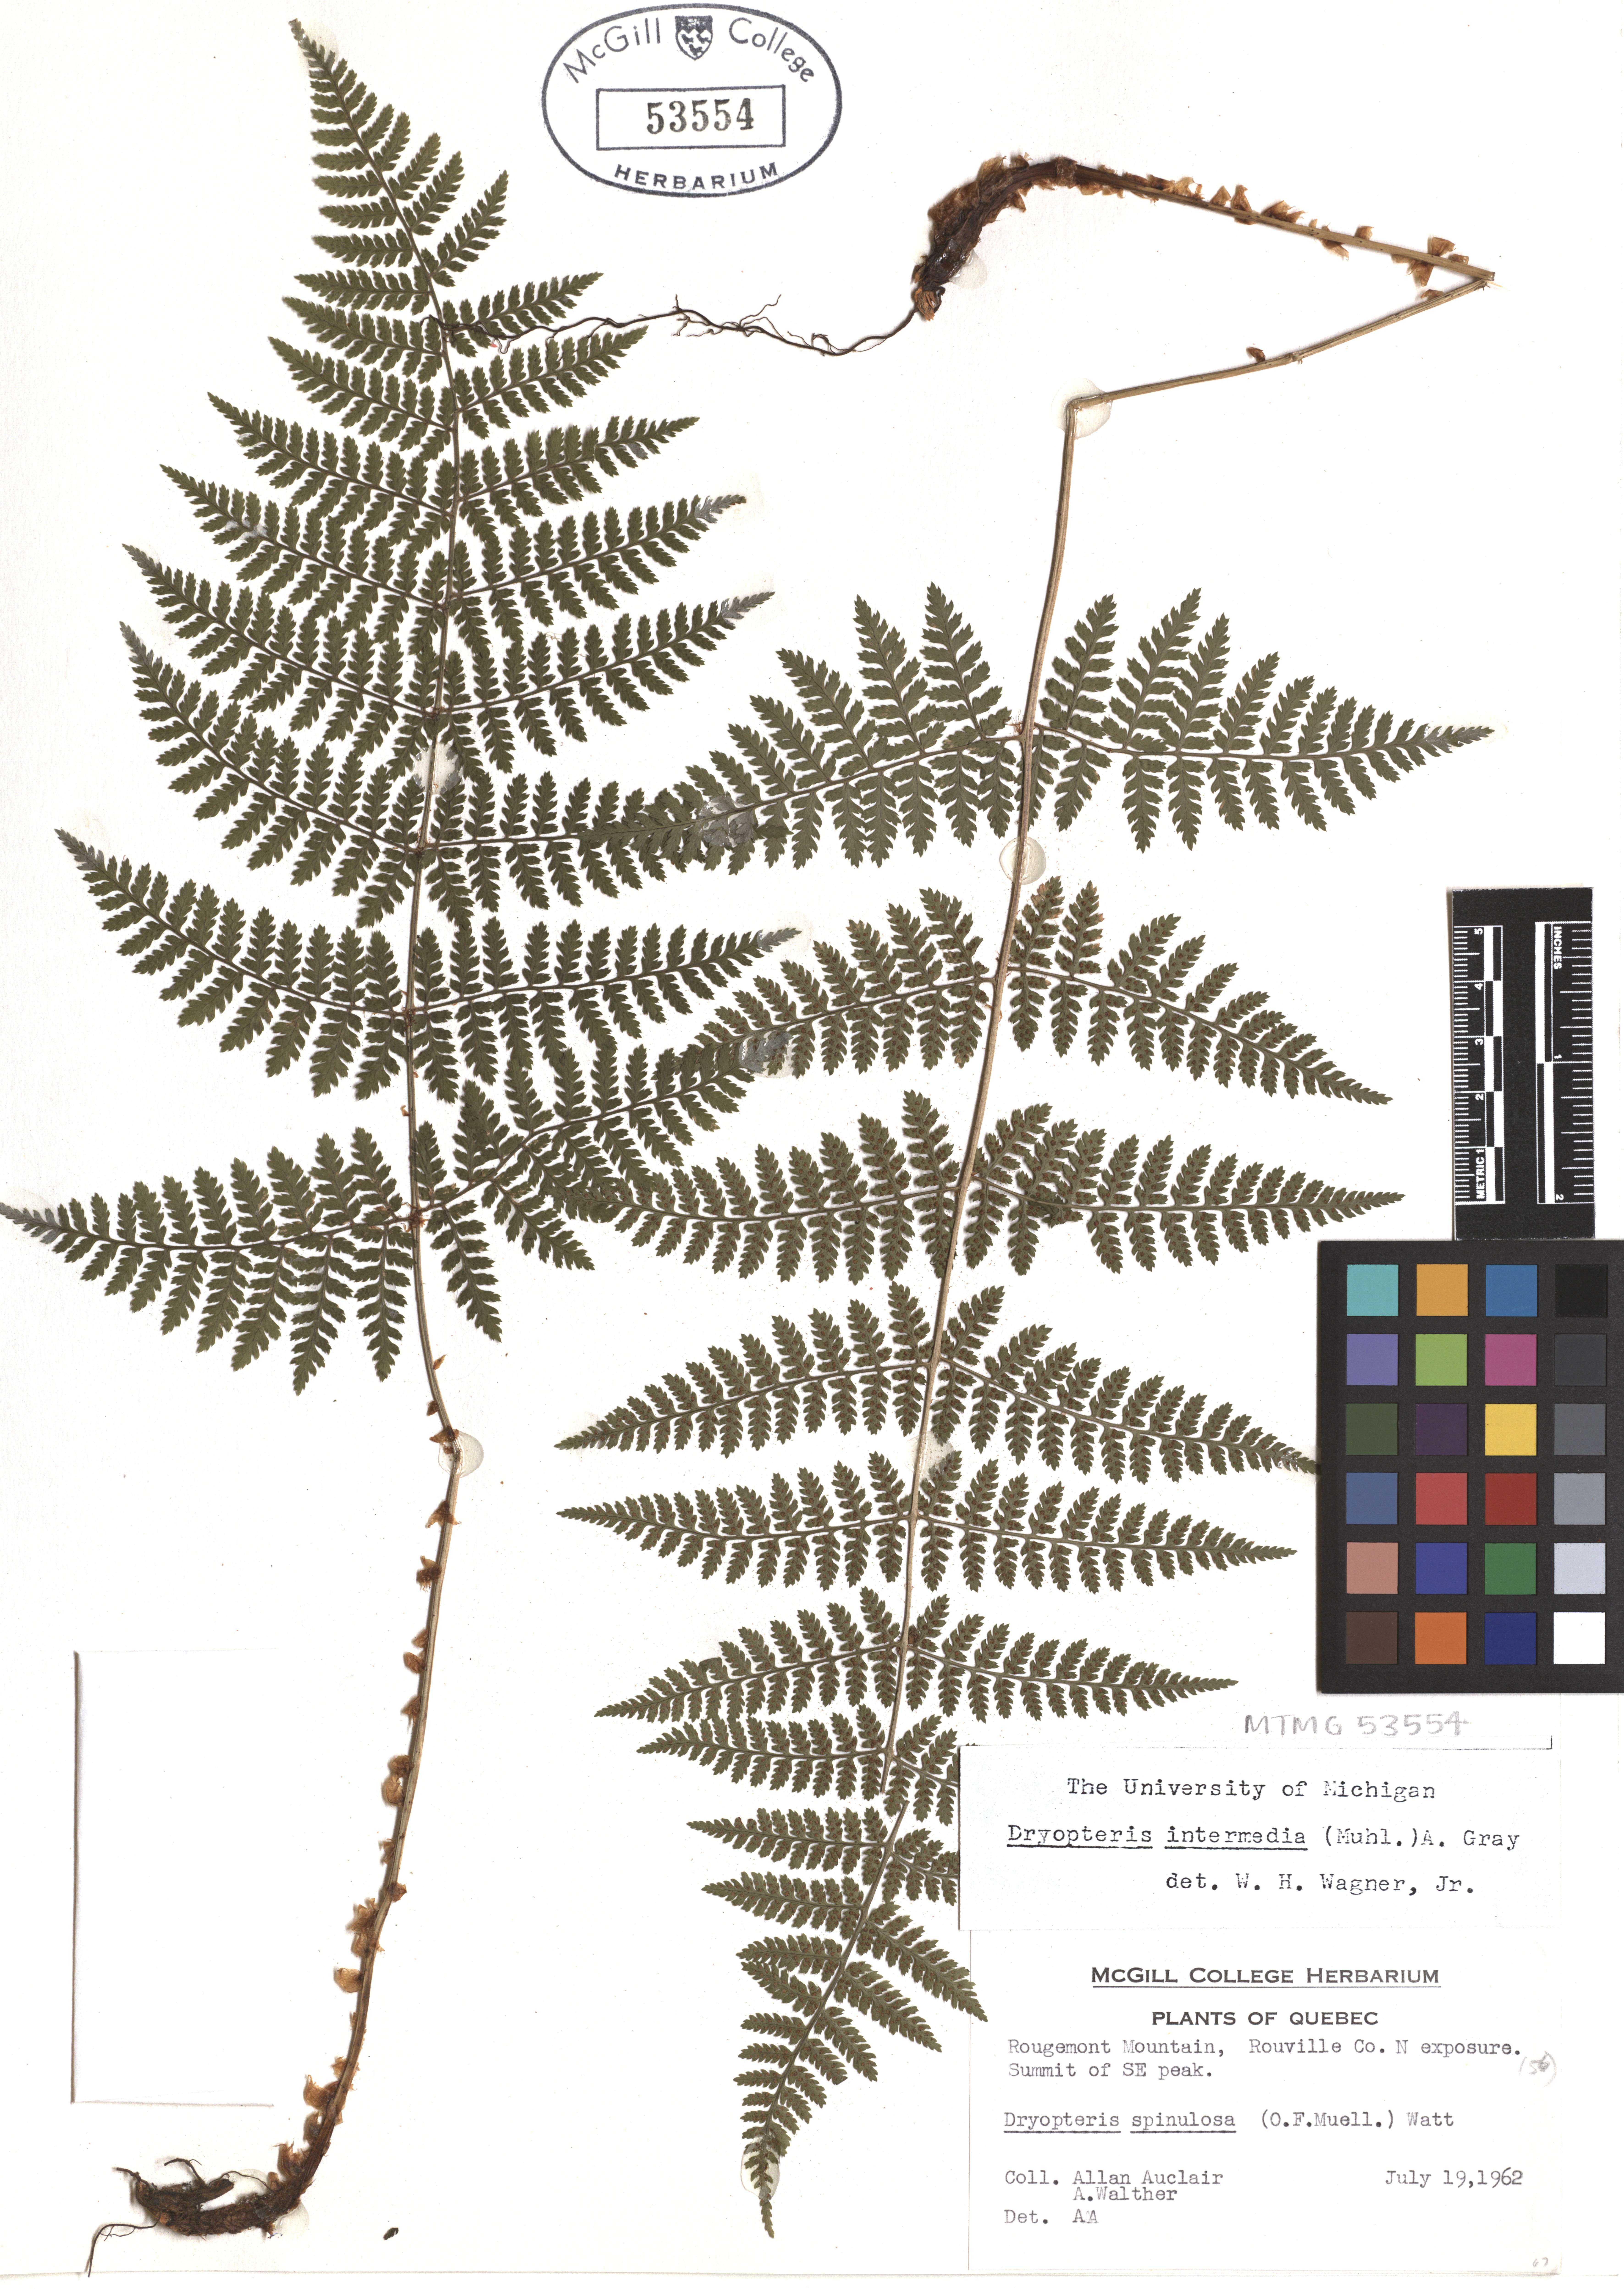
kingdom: Plantae
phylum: Tracheophyta
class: Polypodiopsida
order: Polypodiales
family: Dryopteridaceae
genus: Dryopteris
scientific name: Dryopteris intermedia
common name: Evergreen wood fern
